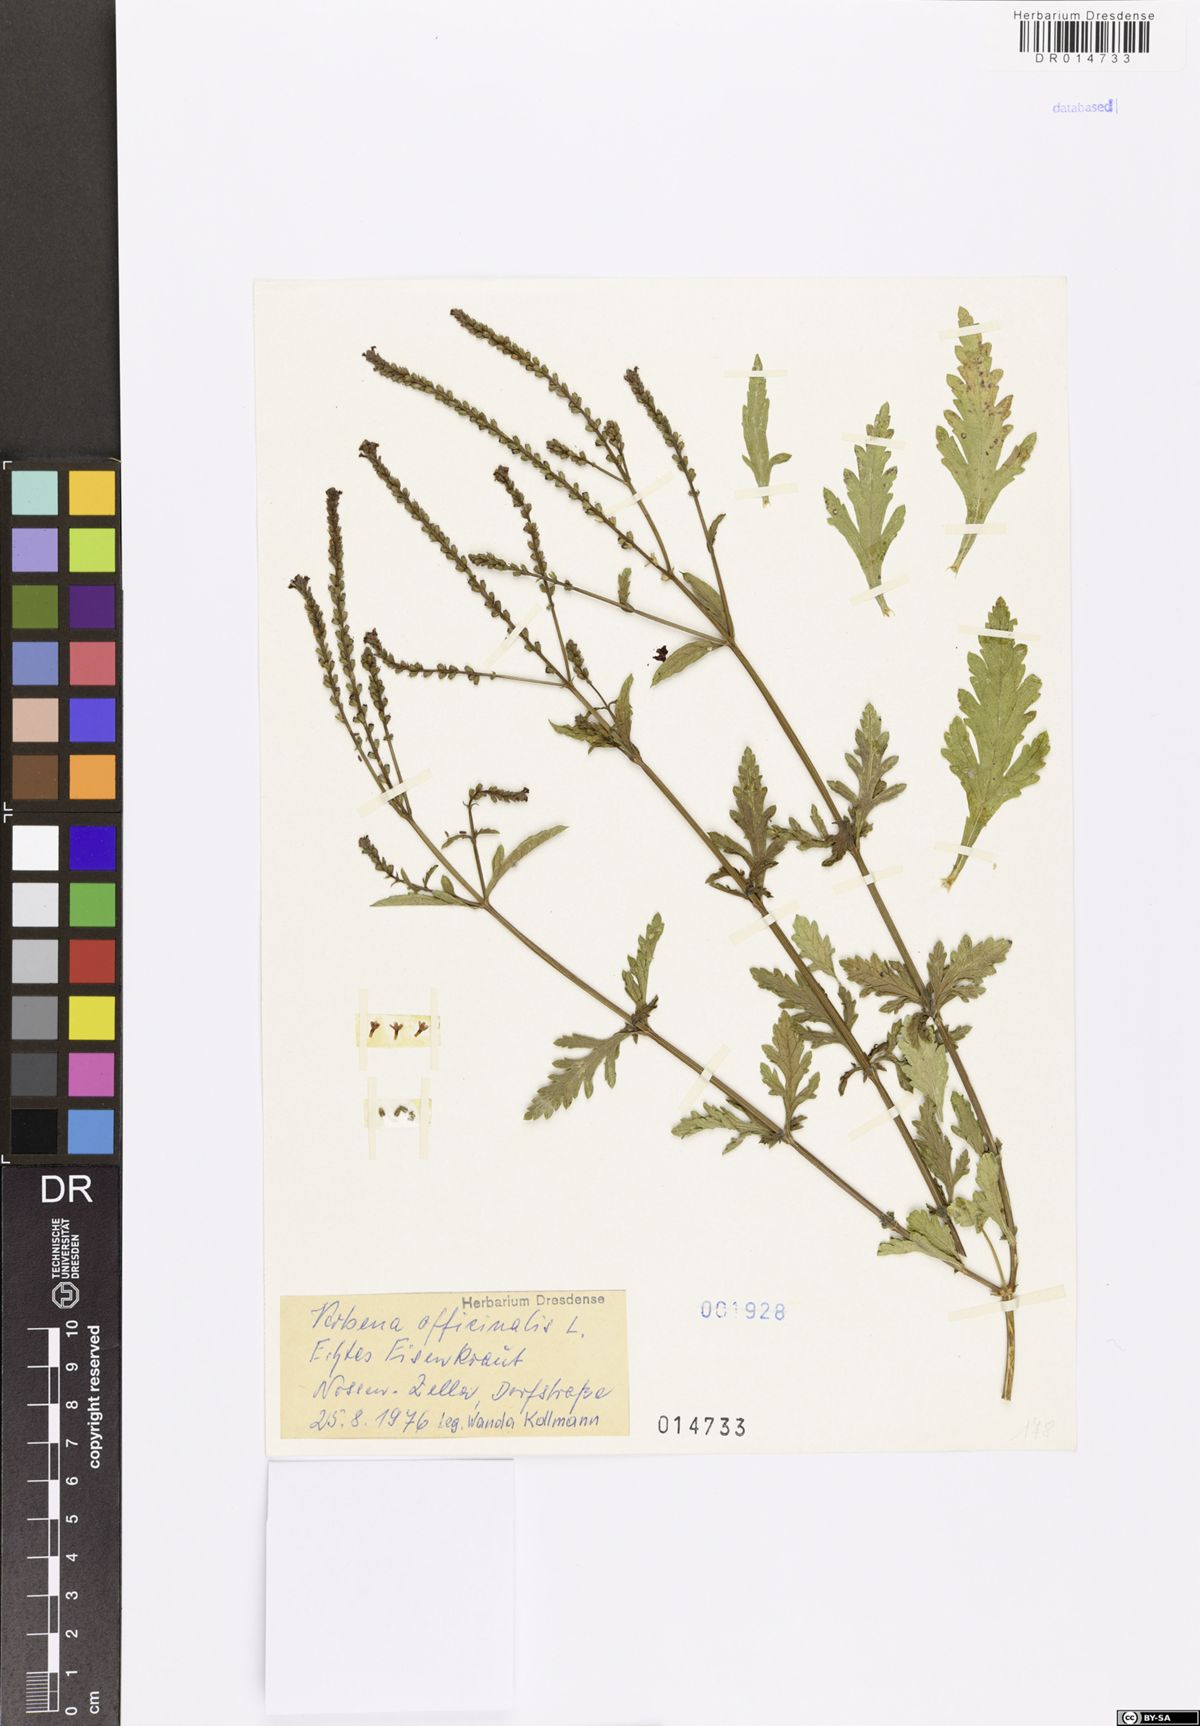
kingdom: Plantae
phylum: Tracheophyta
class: Magnoliopsida
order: Lamiales
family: Verbenaceae
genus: Verbena
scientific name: Verbena officinalis
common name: Vervain
